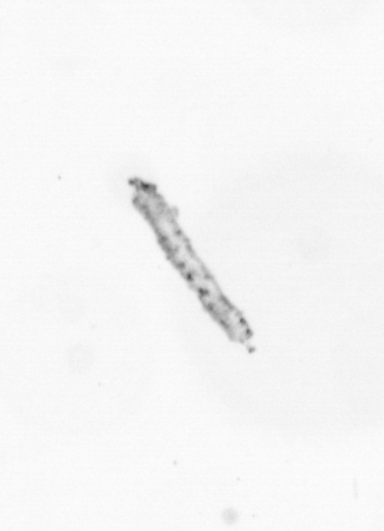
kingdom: Chromista
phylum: Ochrophyta
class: Bacillariophyceae
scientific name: Bacillariophyceae
